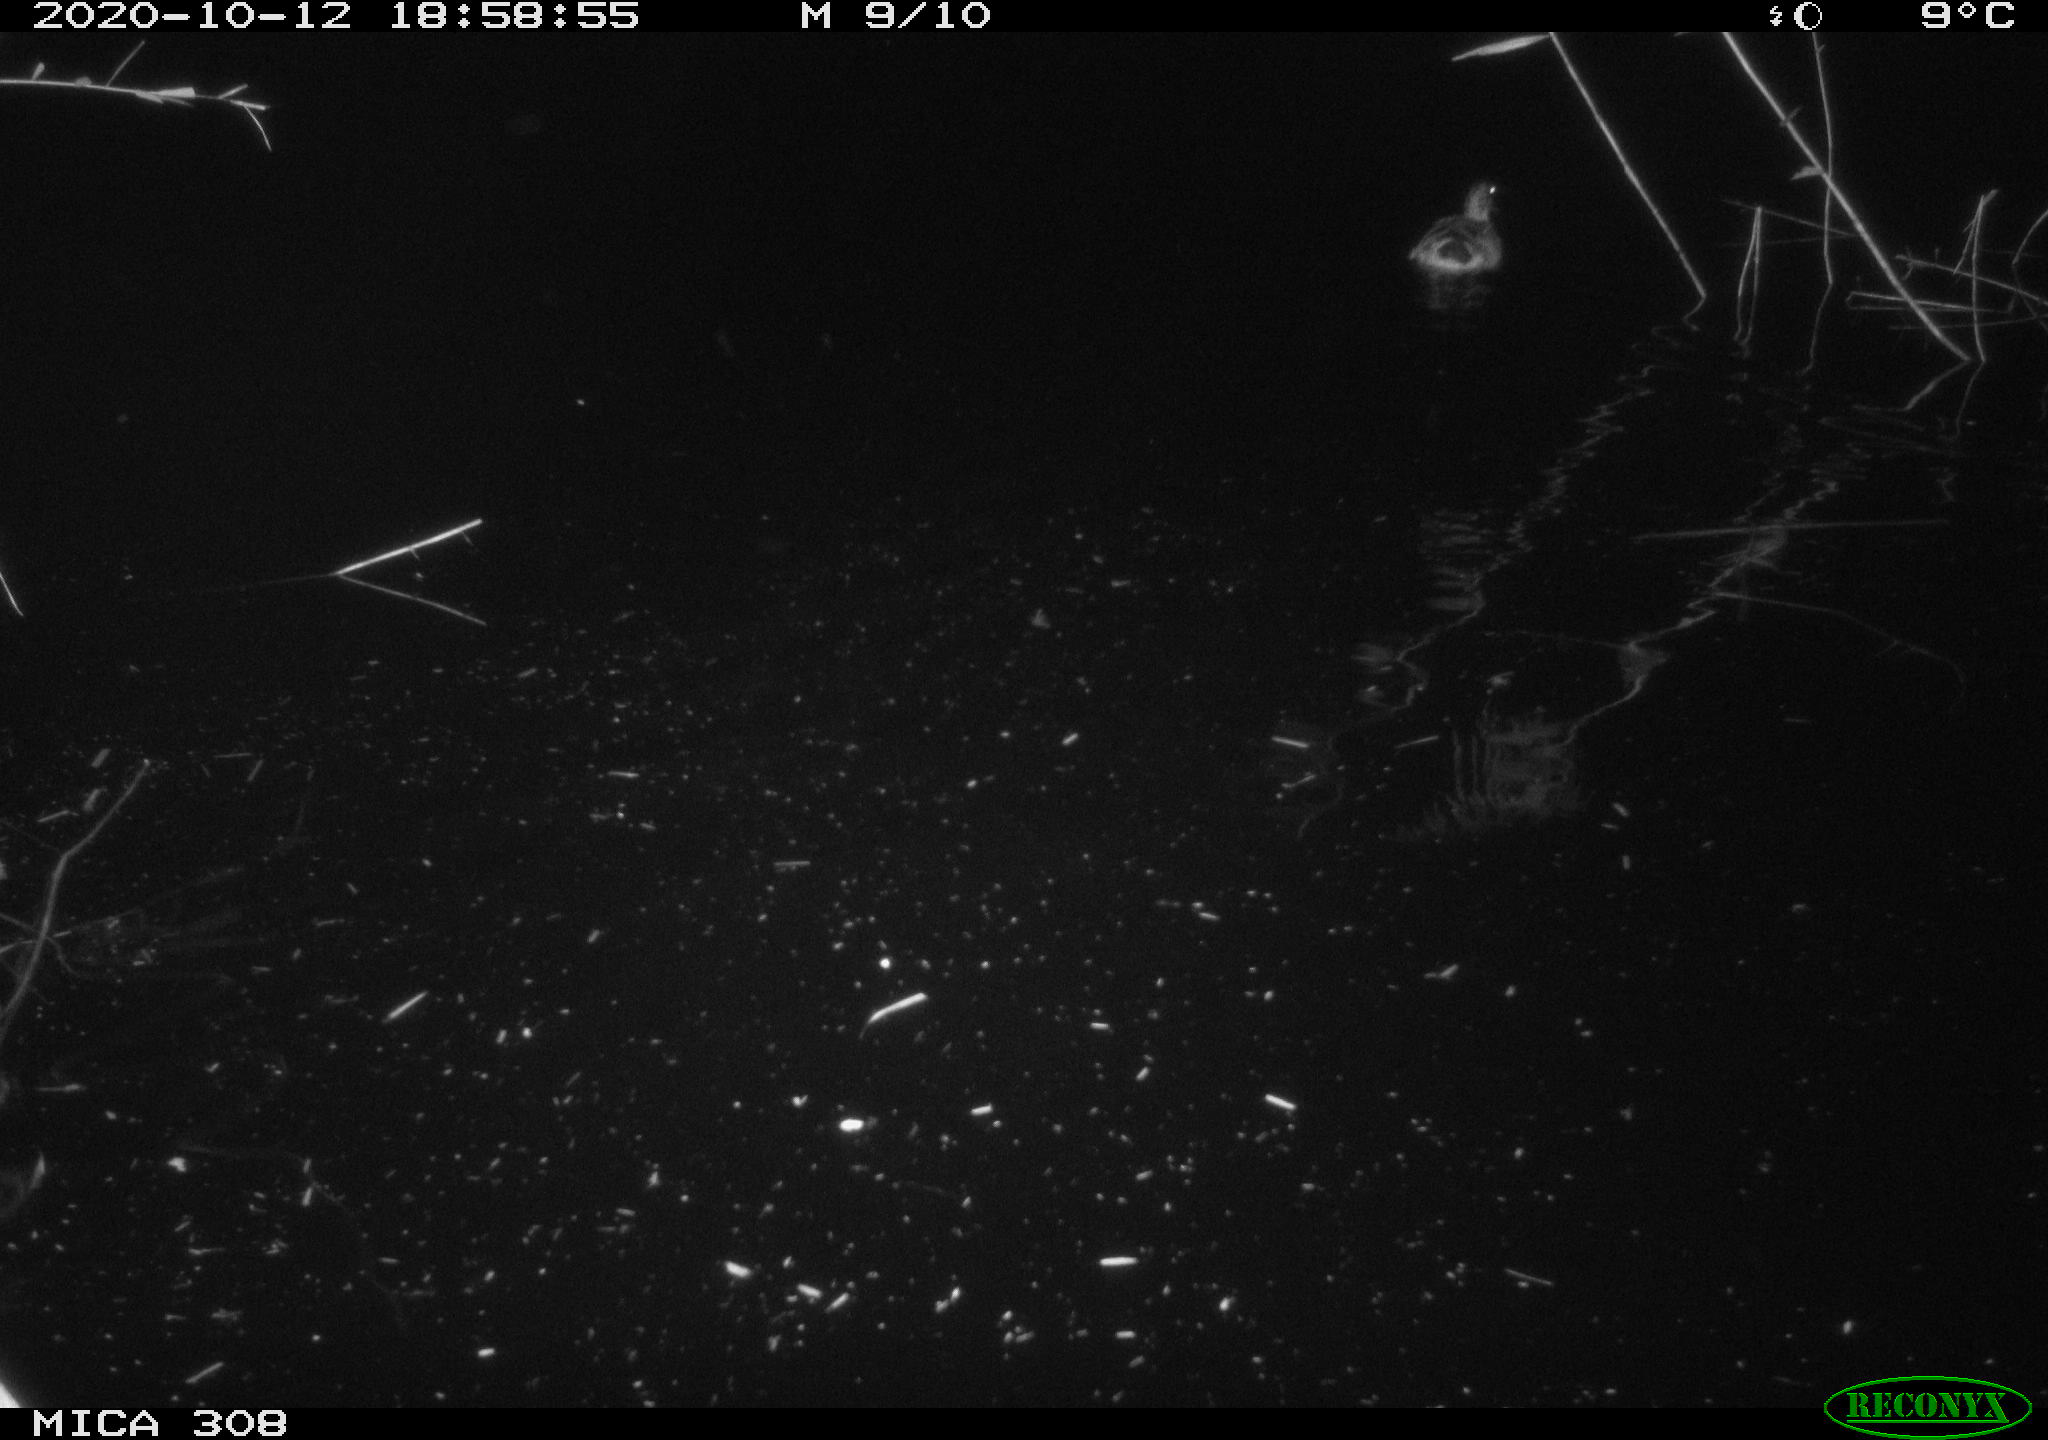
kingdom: Animalia
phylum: Chordata
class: Aves
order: Anseriformes
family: Anatidae
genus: Anas
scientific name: Anas platyrhynchos
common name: Mallard
